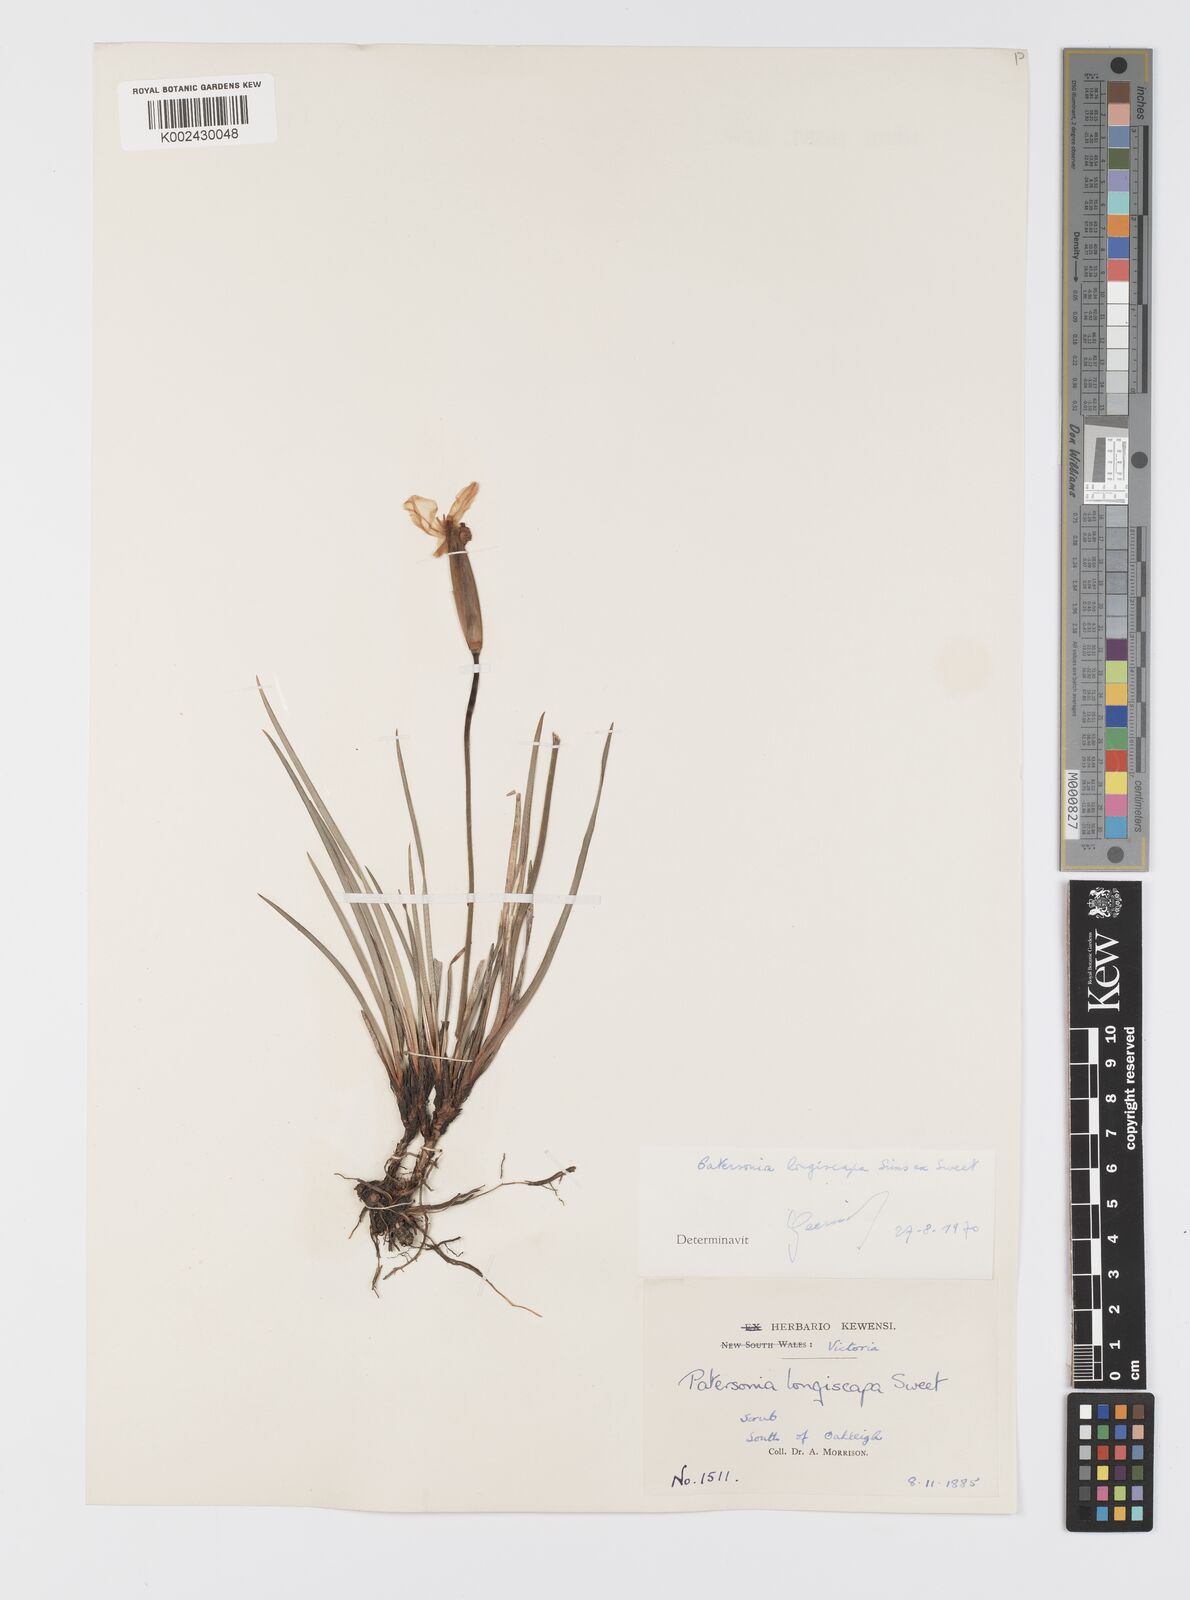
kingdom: Plantae
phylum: Tracheophyta
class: Liliopsida
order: Asparagales
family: Iridaceae
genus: Patersonia
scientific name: Patersonia occidentalis
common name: Long purple-flag
